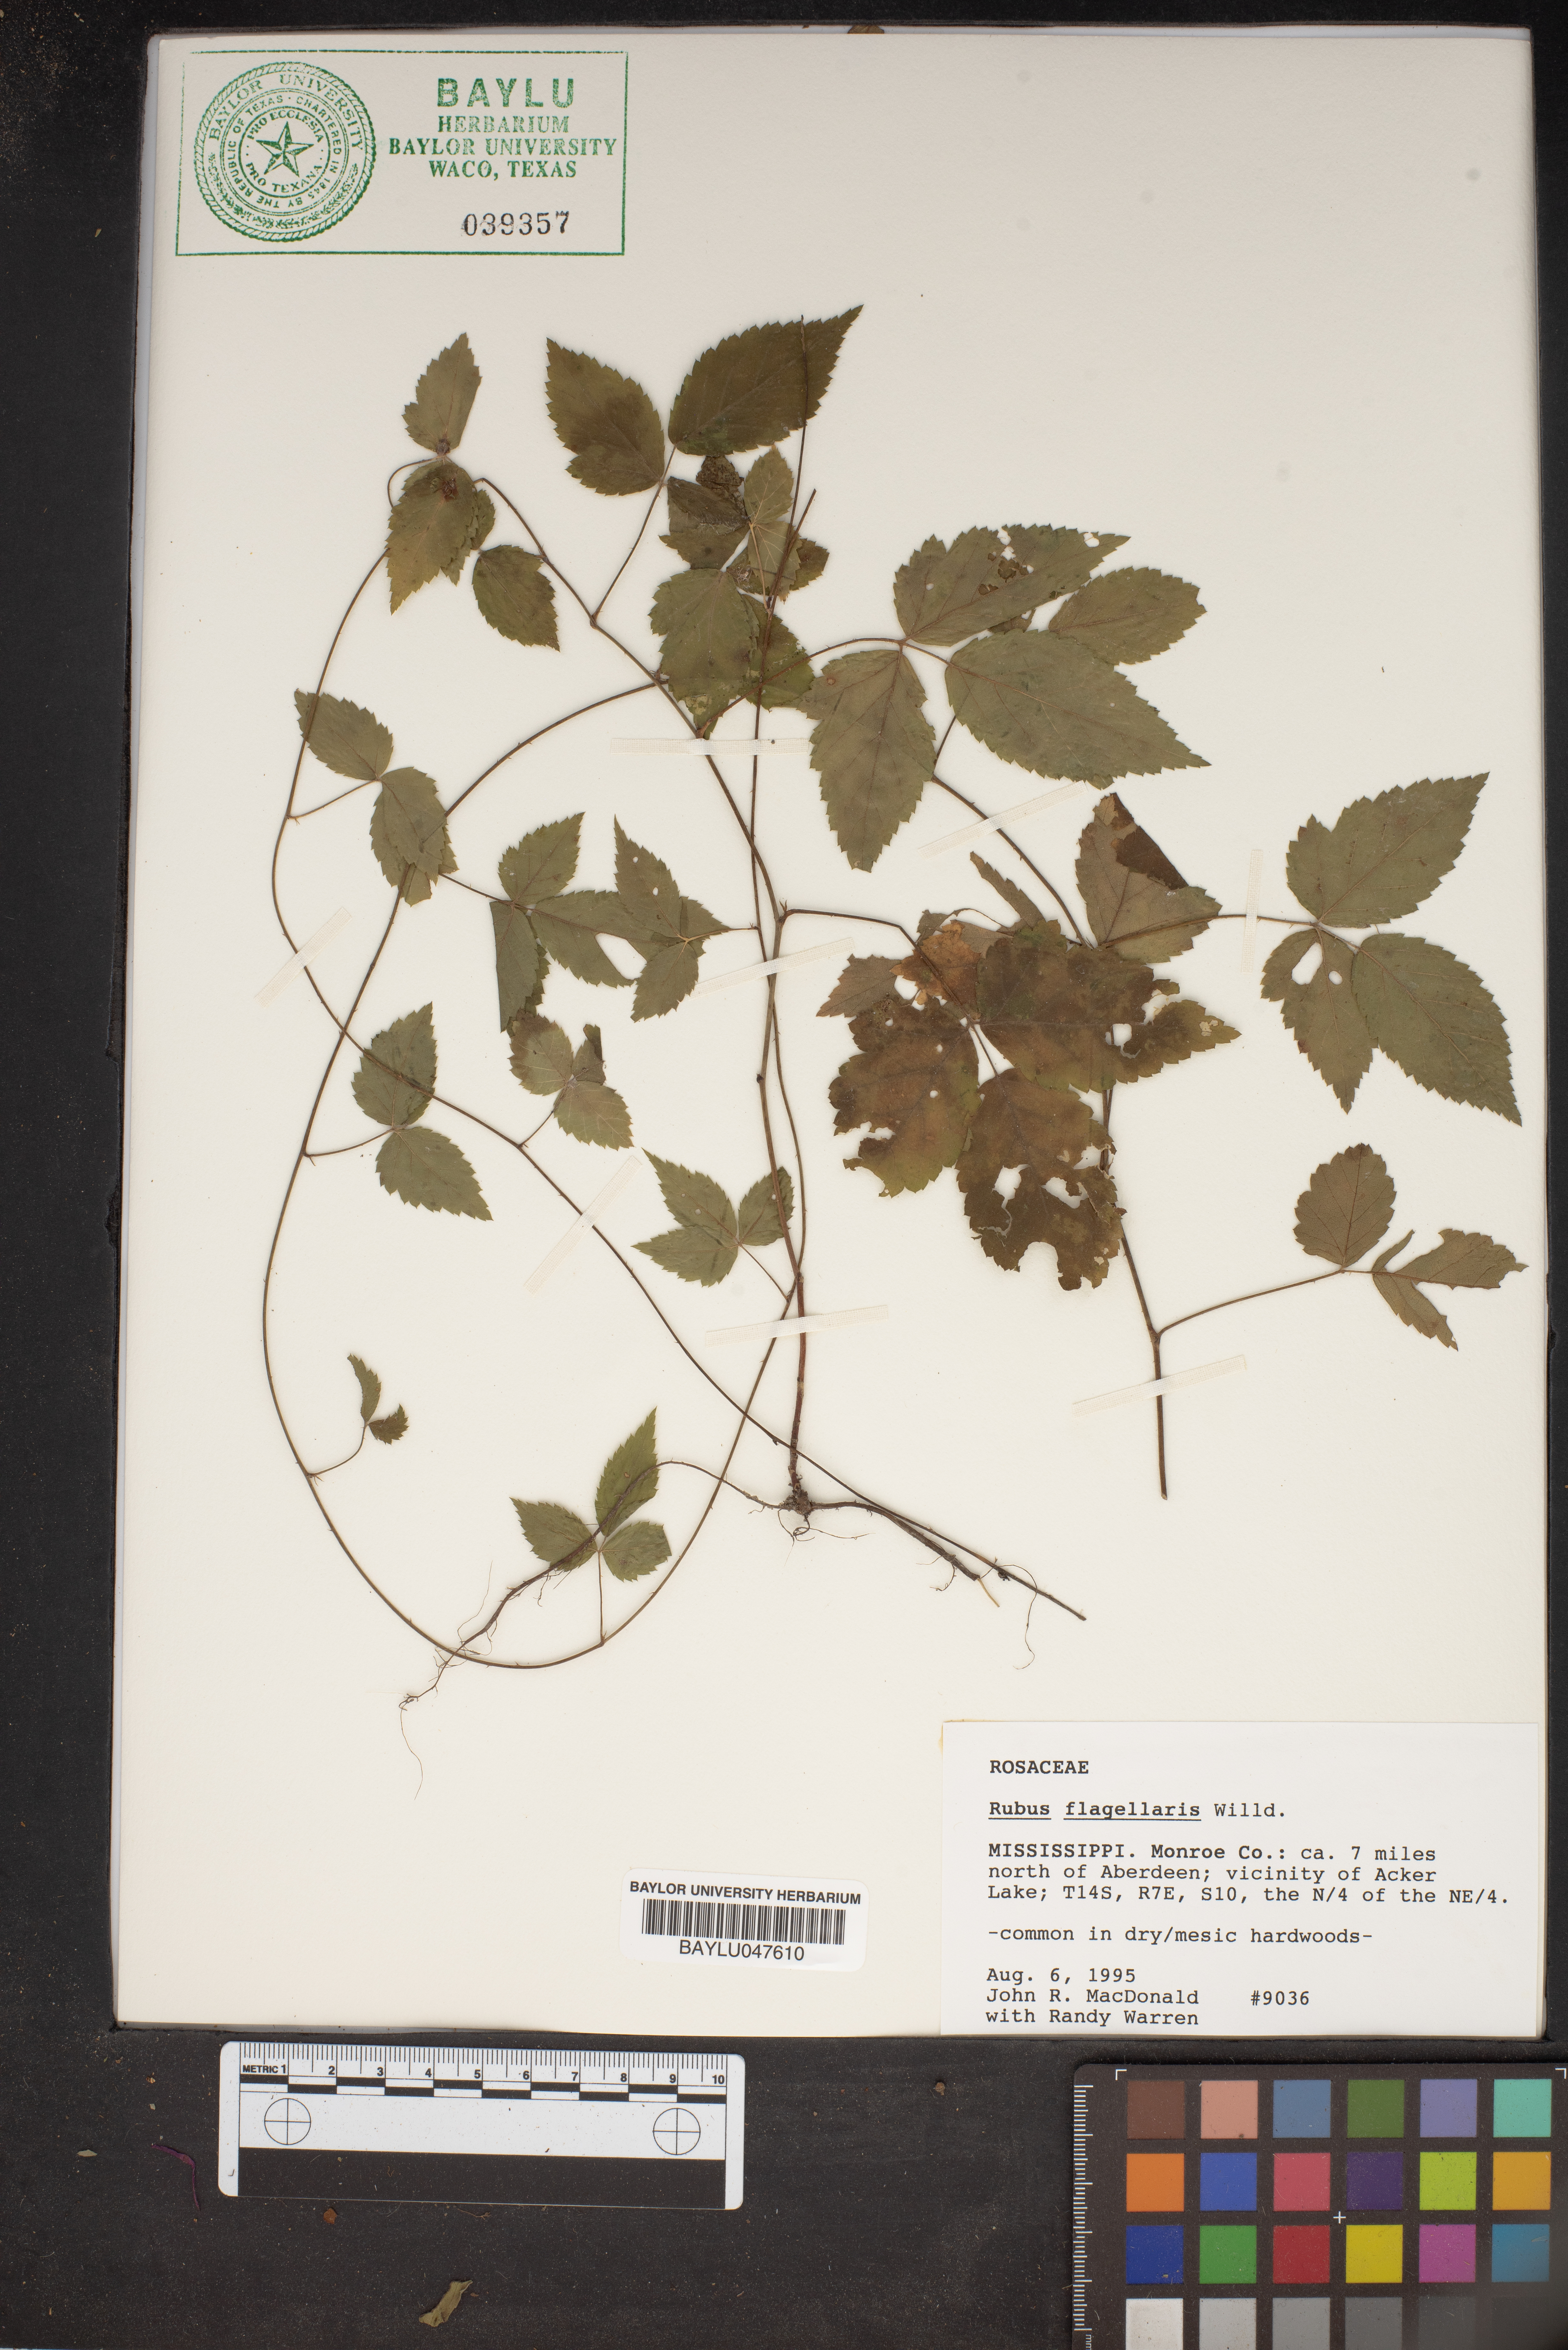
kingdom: Plantae
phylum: Tracheophyta
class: Magnoliopsida
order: Rosales
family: Rosaceae
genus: Rubus
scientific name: Rubus flagellaris
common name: American dewberry
